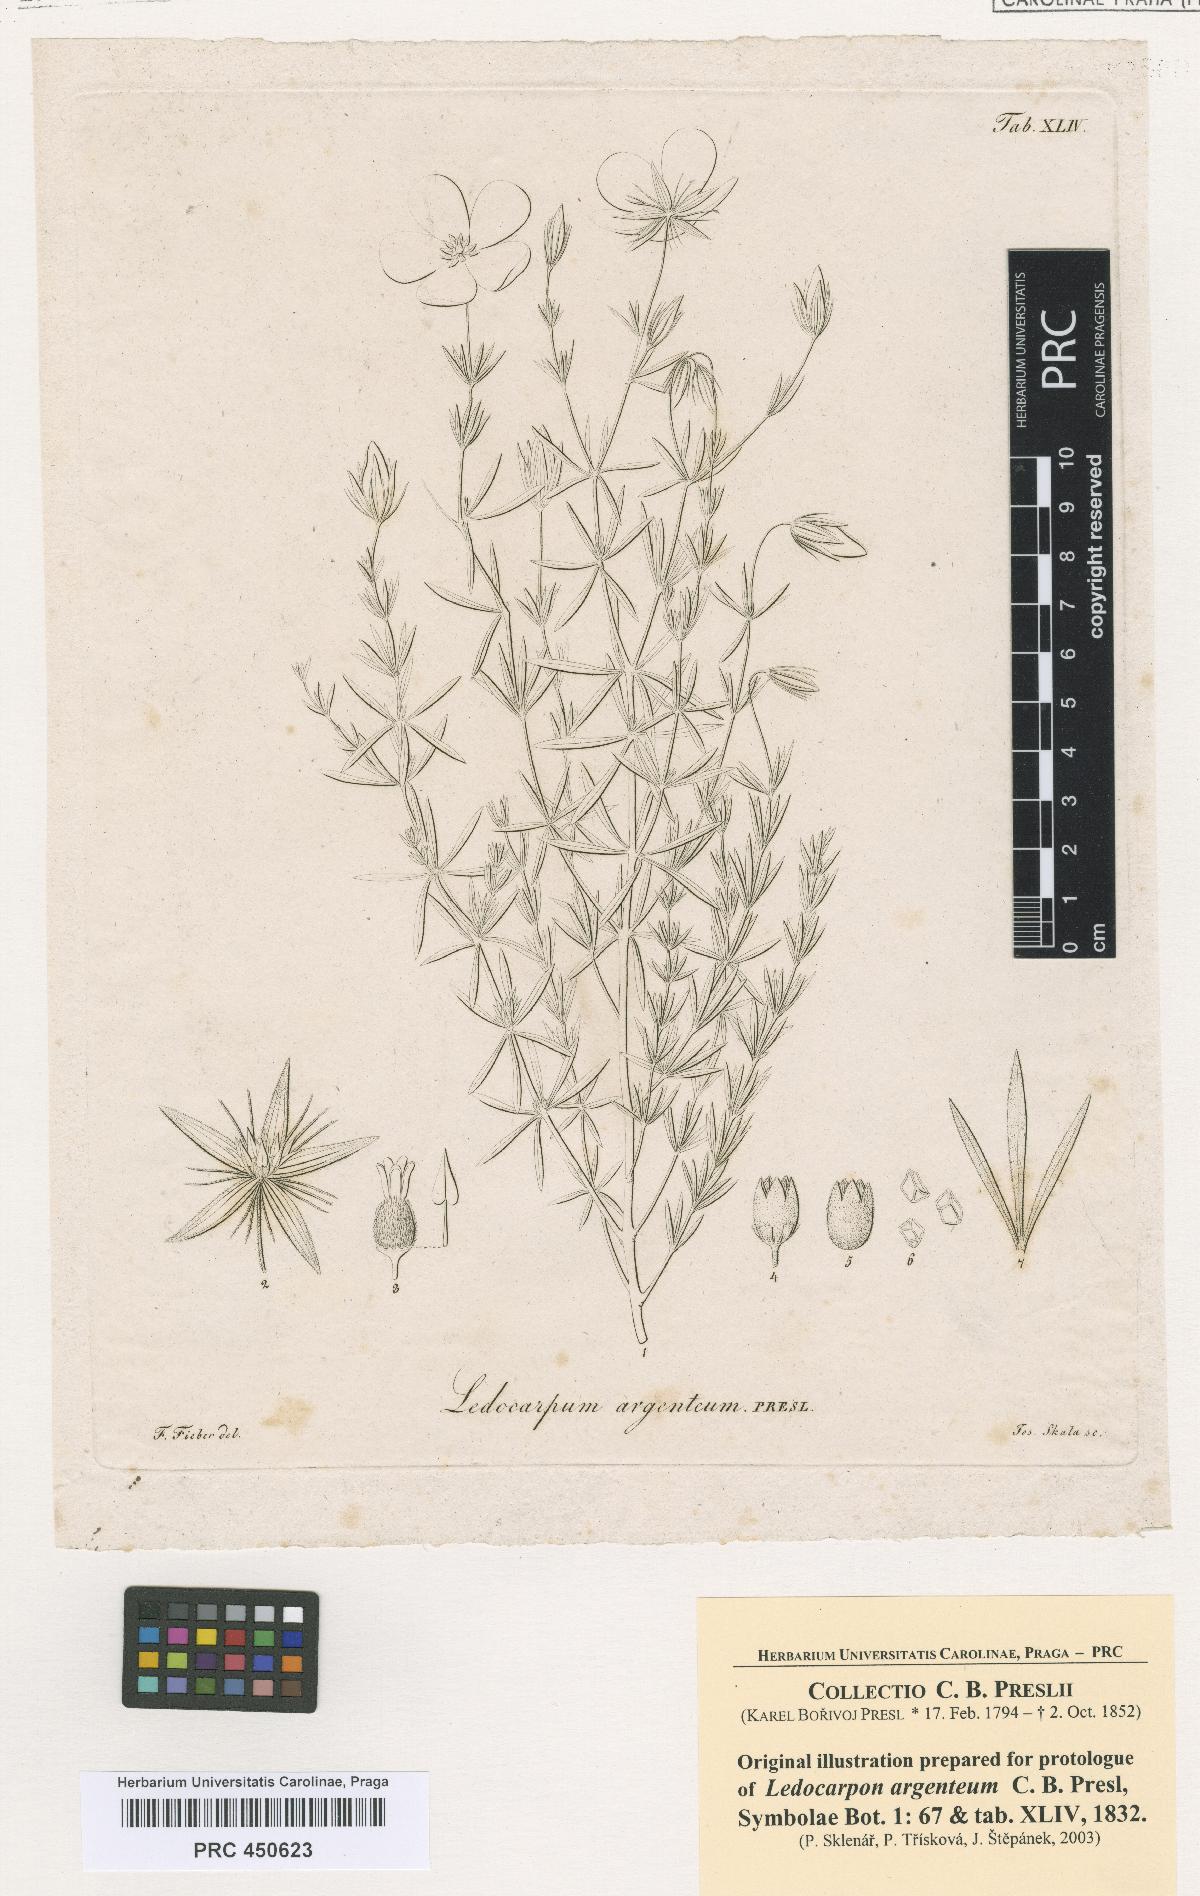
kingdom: Plantae
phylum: Tracheophyta
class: Magnoliopsida
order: Geraniales
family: Vivianiaceae
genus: Balbisia
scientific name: Balbisia verticillata
